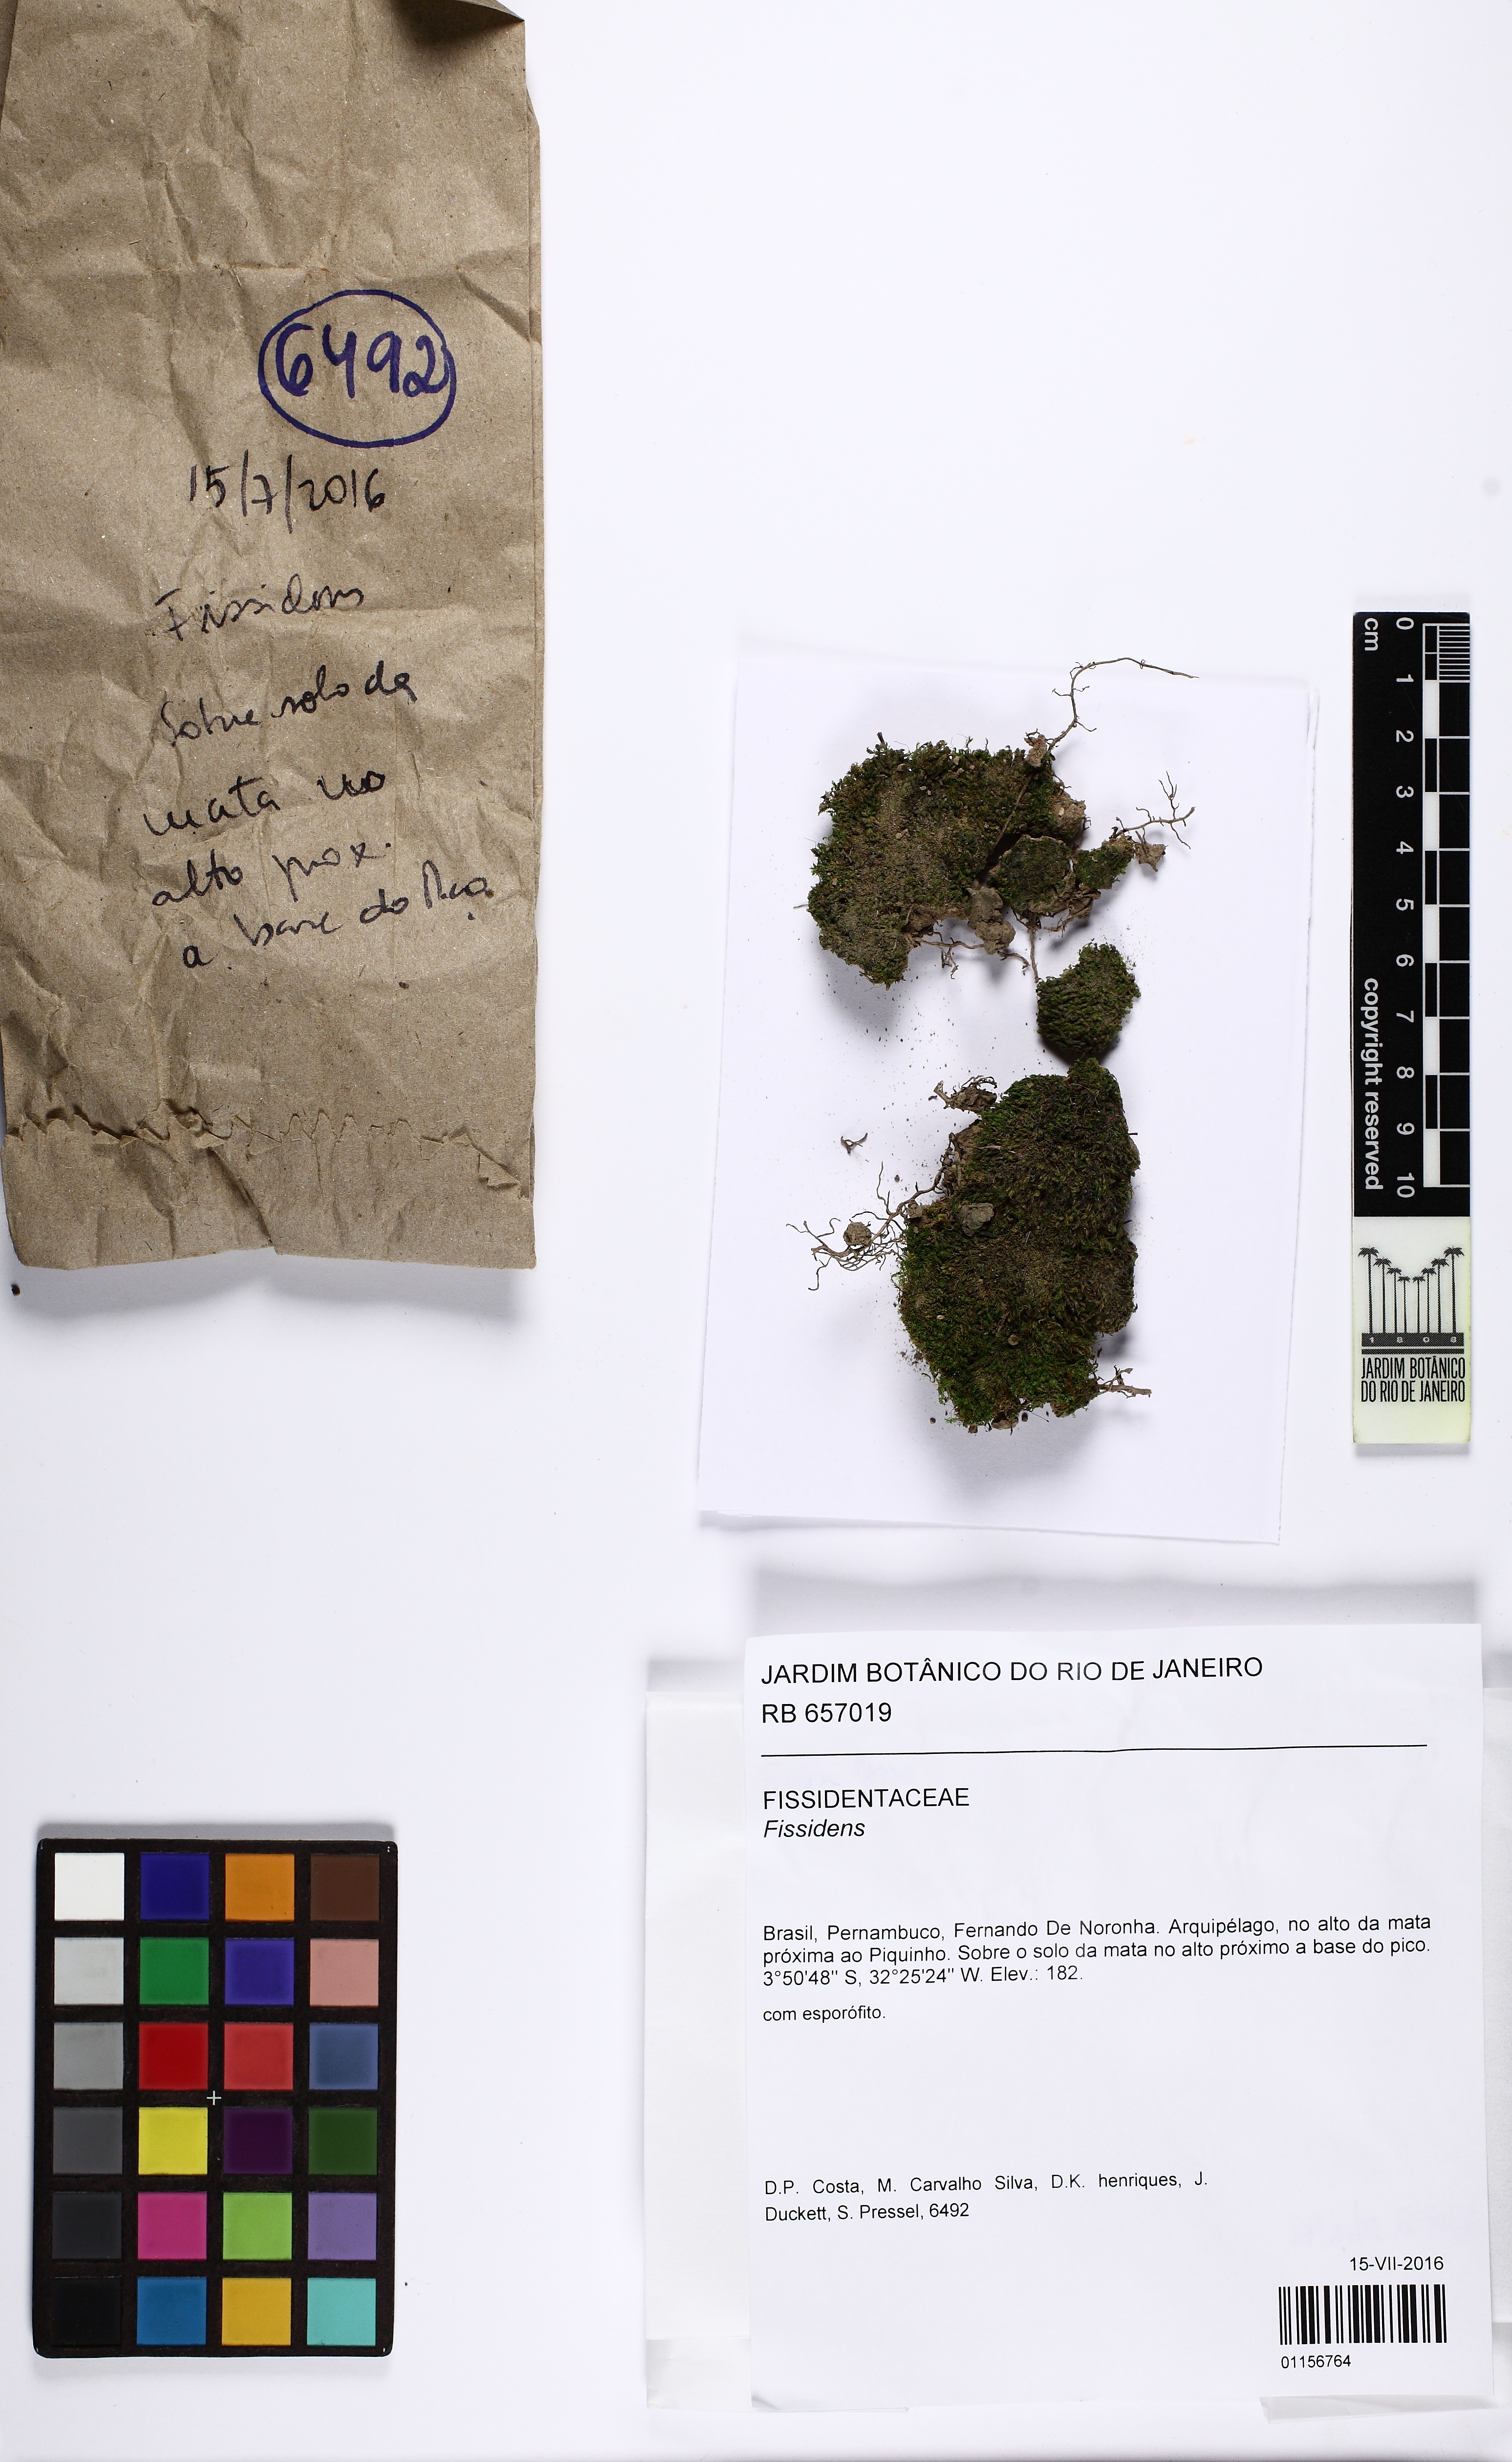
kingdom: Plantae
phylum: Bryophyta
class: Bryopsida
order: Dicranales
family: Fissidentaceae
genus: Fissidens
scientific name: Fissidens
